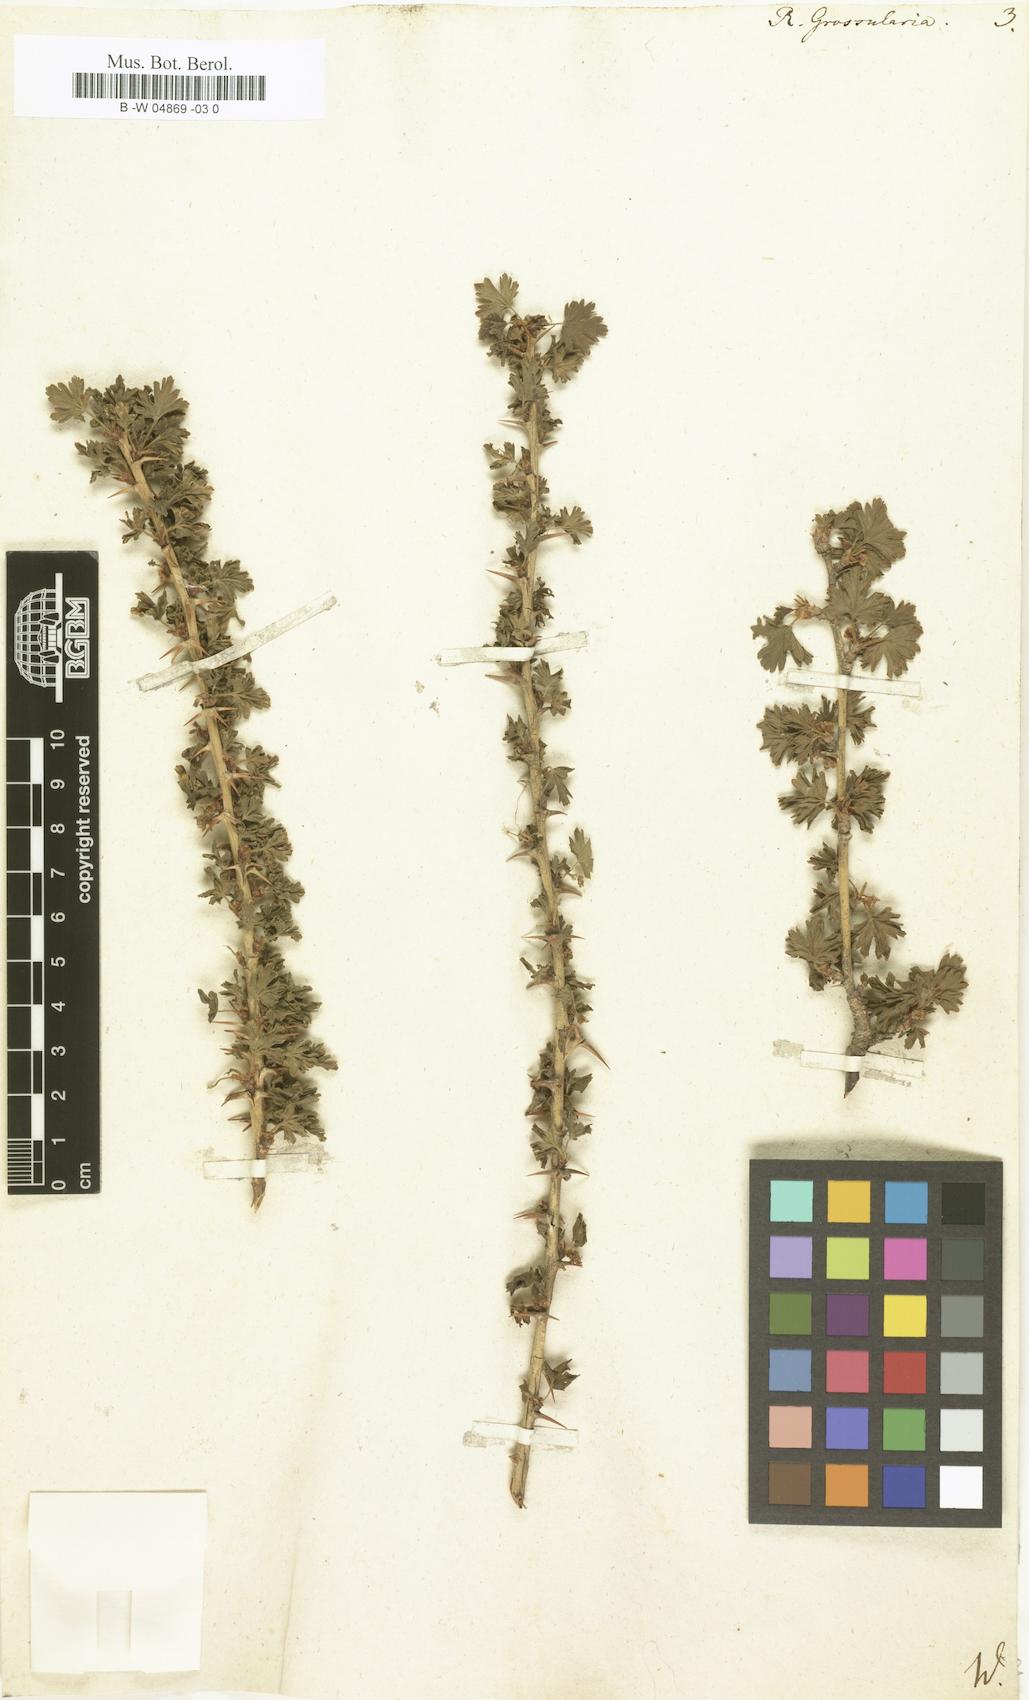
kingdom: Plantae
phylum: Tracheophyta
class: Magnoliopsida
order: Saxifragales
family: Grossulariaceae
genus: Ribes
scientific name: Ribes uva-crispa
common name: Gooseberry
